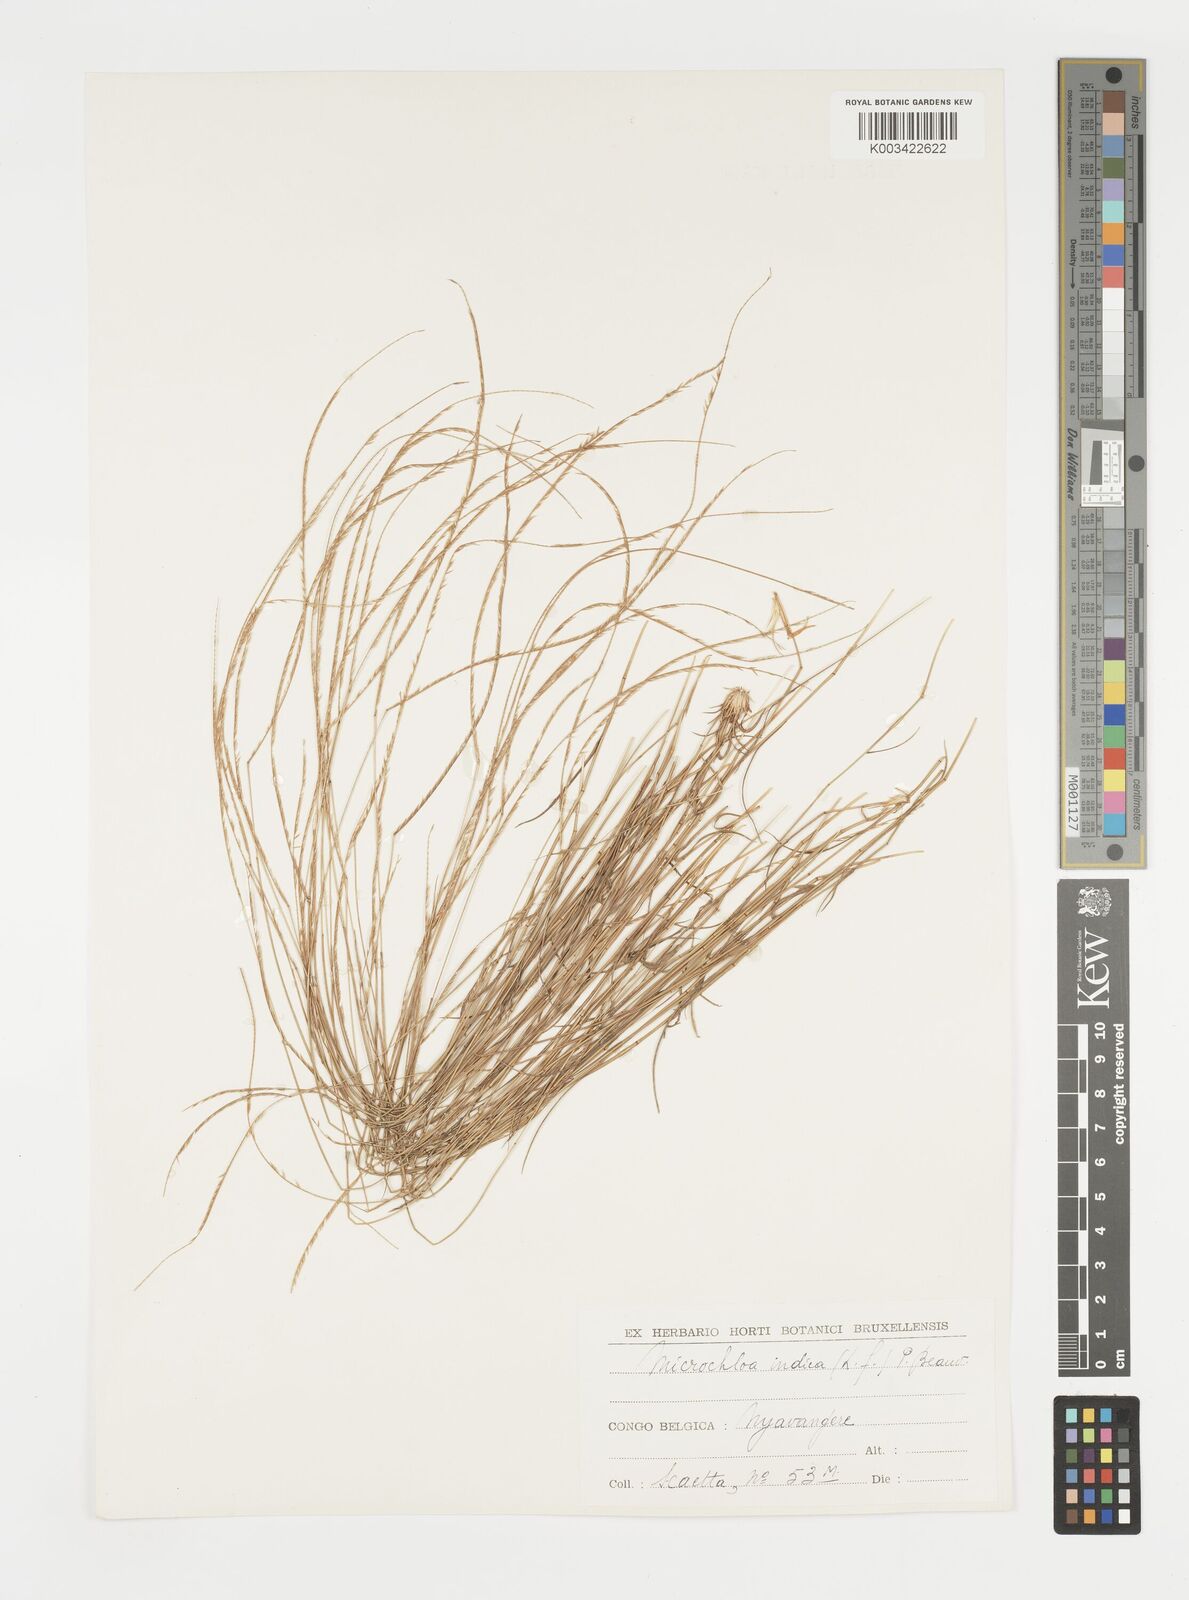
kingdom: Plantae
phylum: Tracheophyta
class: Liliopsida
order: Poales
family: Poaceae
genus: Microchloa
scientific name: Microchloa kunthii
